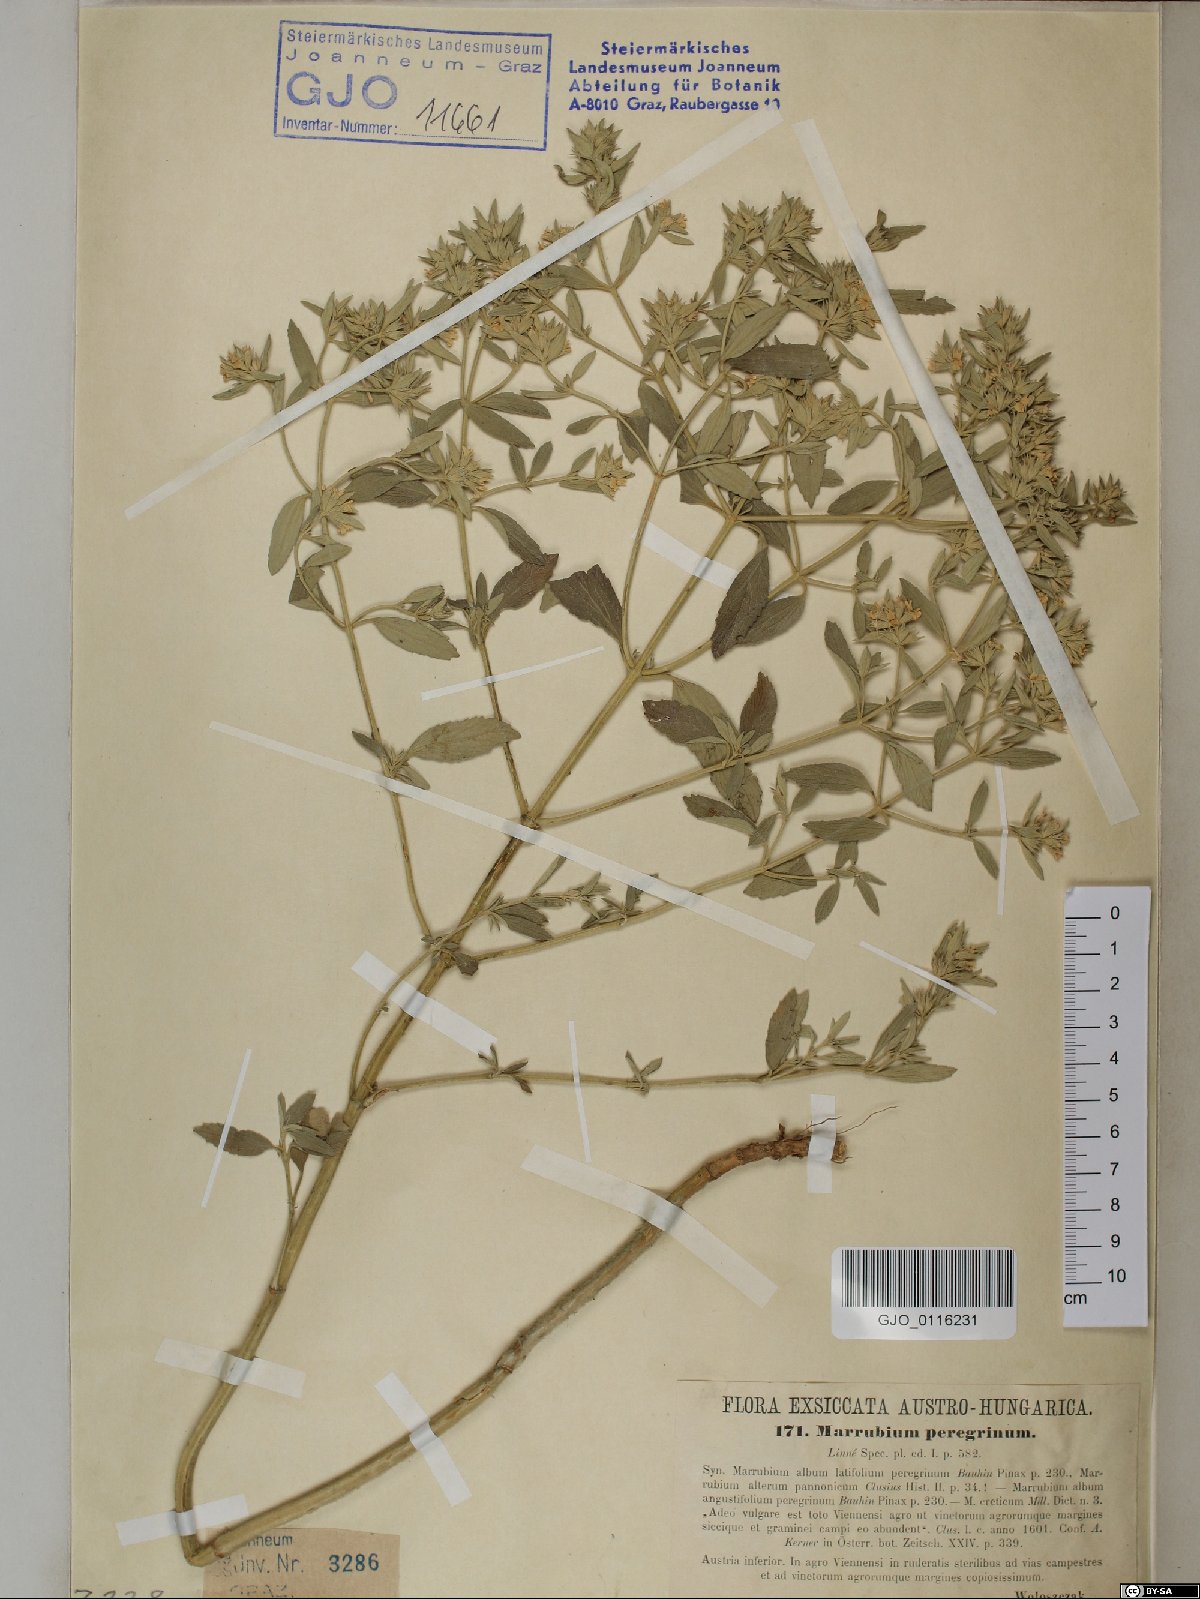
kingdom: Plantae
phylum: Tracheophyta
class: Magnoliopsida
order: Lamiales
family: Lamiaceae
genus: Marrubium
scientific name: Marrubium peregrinum
